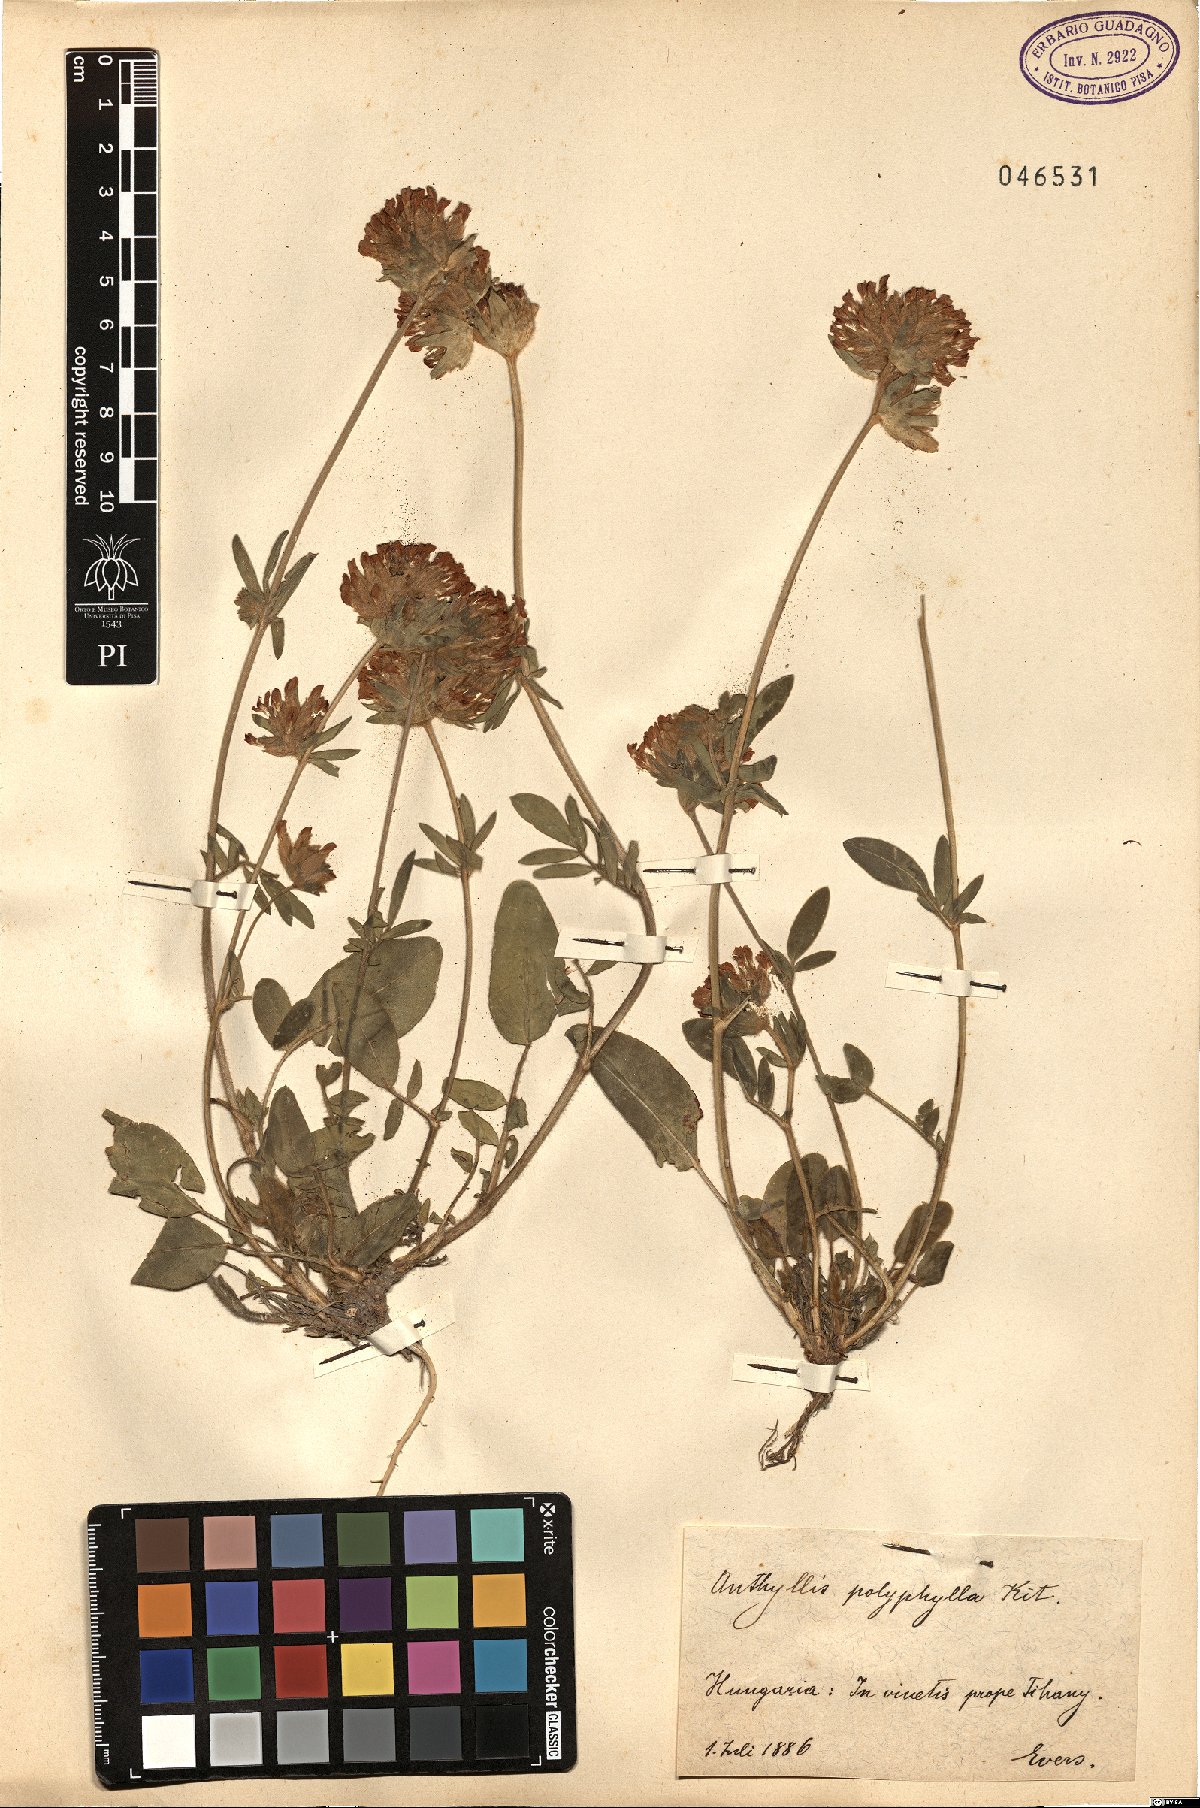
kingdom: Plantae
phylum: Tracheophyta
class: Magnoliopsida
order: Fabales
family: Fabaceae
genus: Anthyllis
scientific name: Anthyllis vulneraria
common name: Kidney vetch
